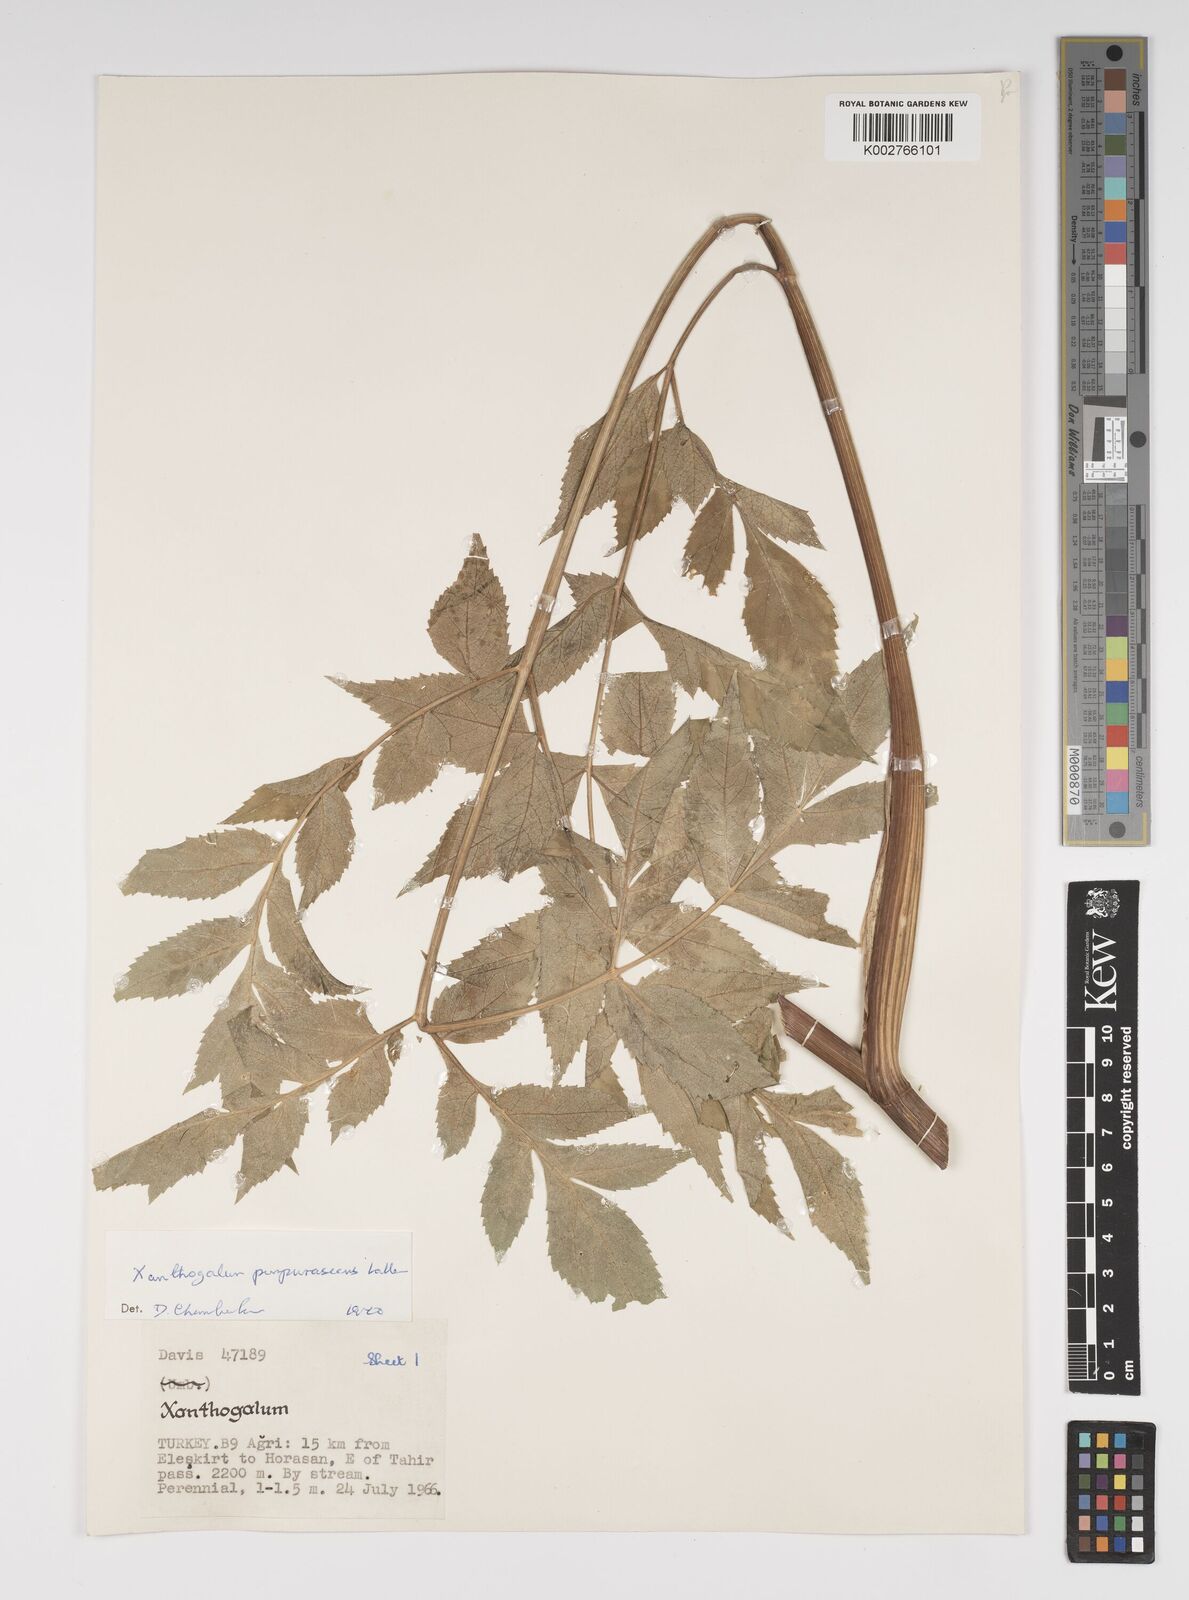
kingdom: Plantae
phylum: Tracheophyta
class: Magnoliopsida
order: Apiales
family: Apiaceae
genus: Xanthogalum
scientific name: Xanthogalum purpurascens
